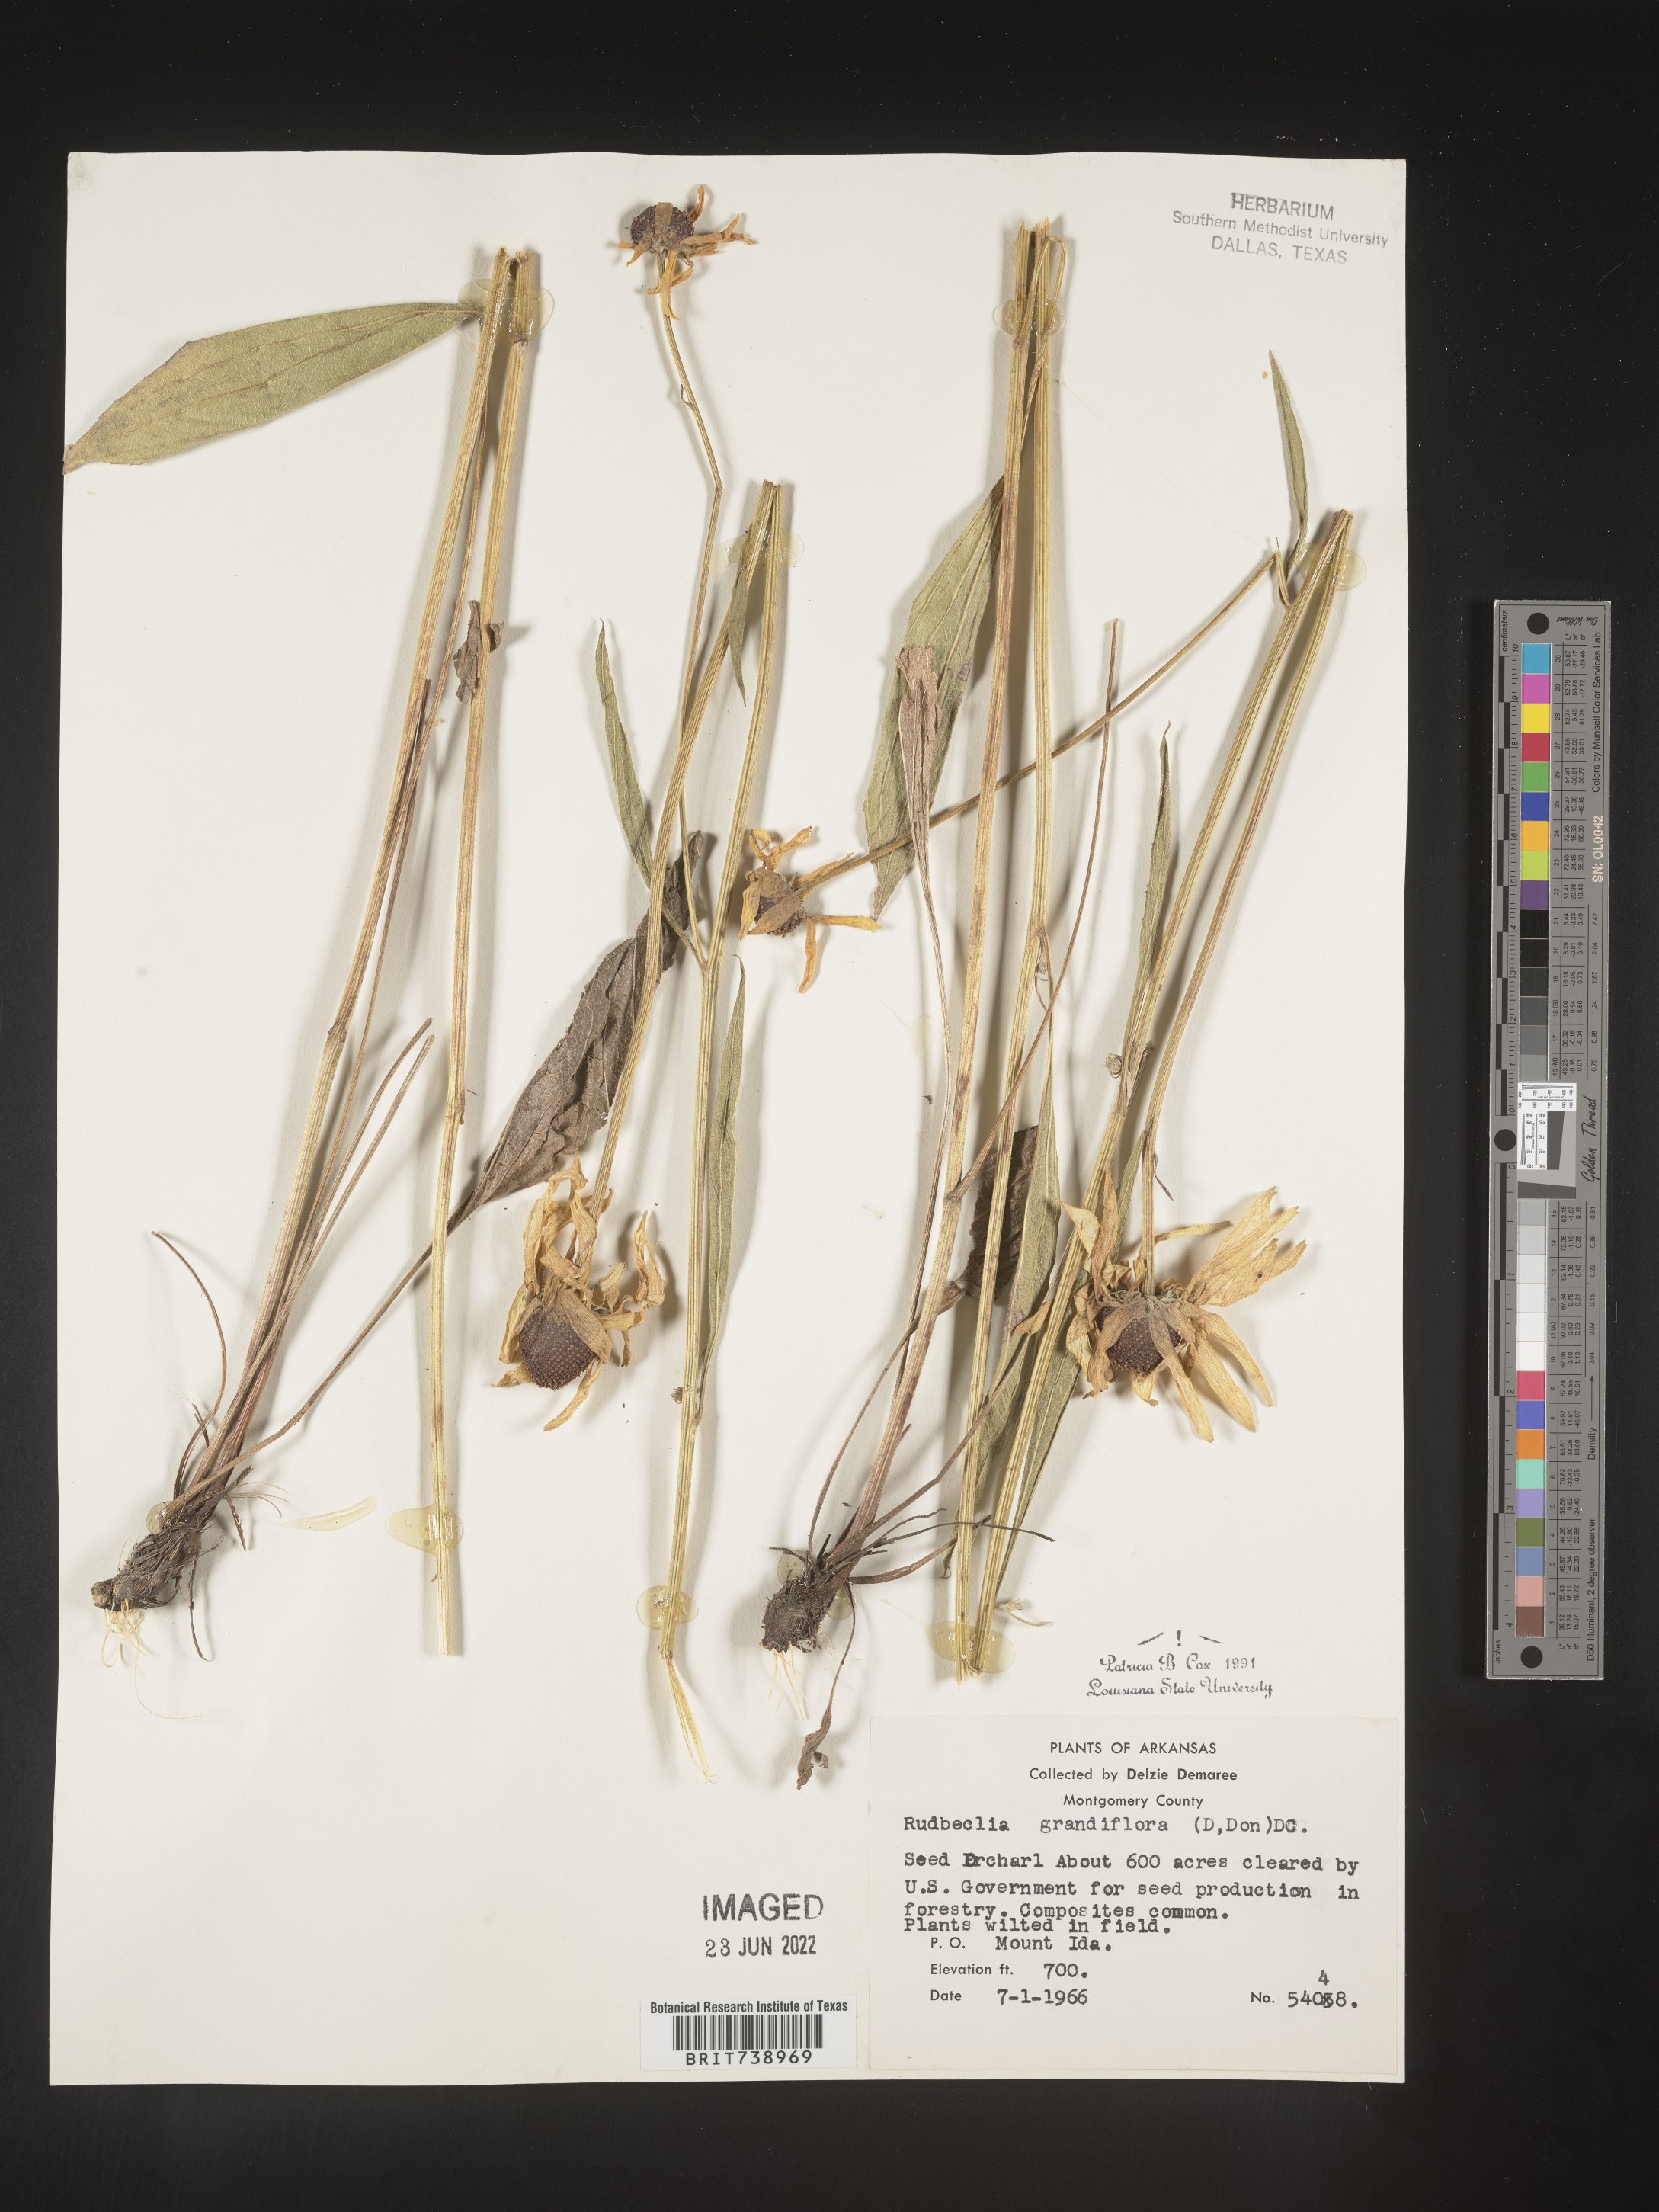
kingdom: Plantae
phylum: Tracheophyta
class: Magnoliopsida
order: Asterales
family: Asteraceae
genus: Rudbeckia
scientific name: Rudbeckia grandiflora
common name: Large-flowered coneflower
